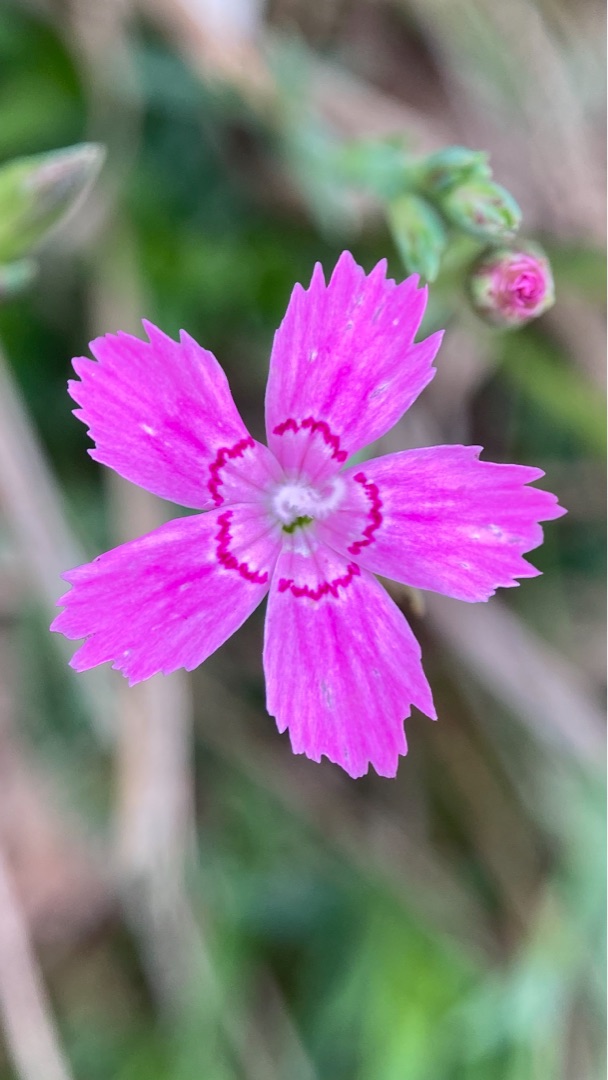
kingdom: Plantae
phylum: Tracheophyta
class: Magnoliopsida
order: Caryophyllales
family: Caryophyllaceae
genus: Dianthus
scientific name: Dianthus deltoides
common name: Bakke-nellike
